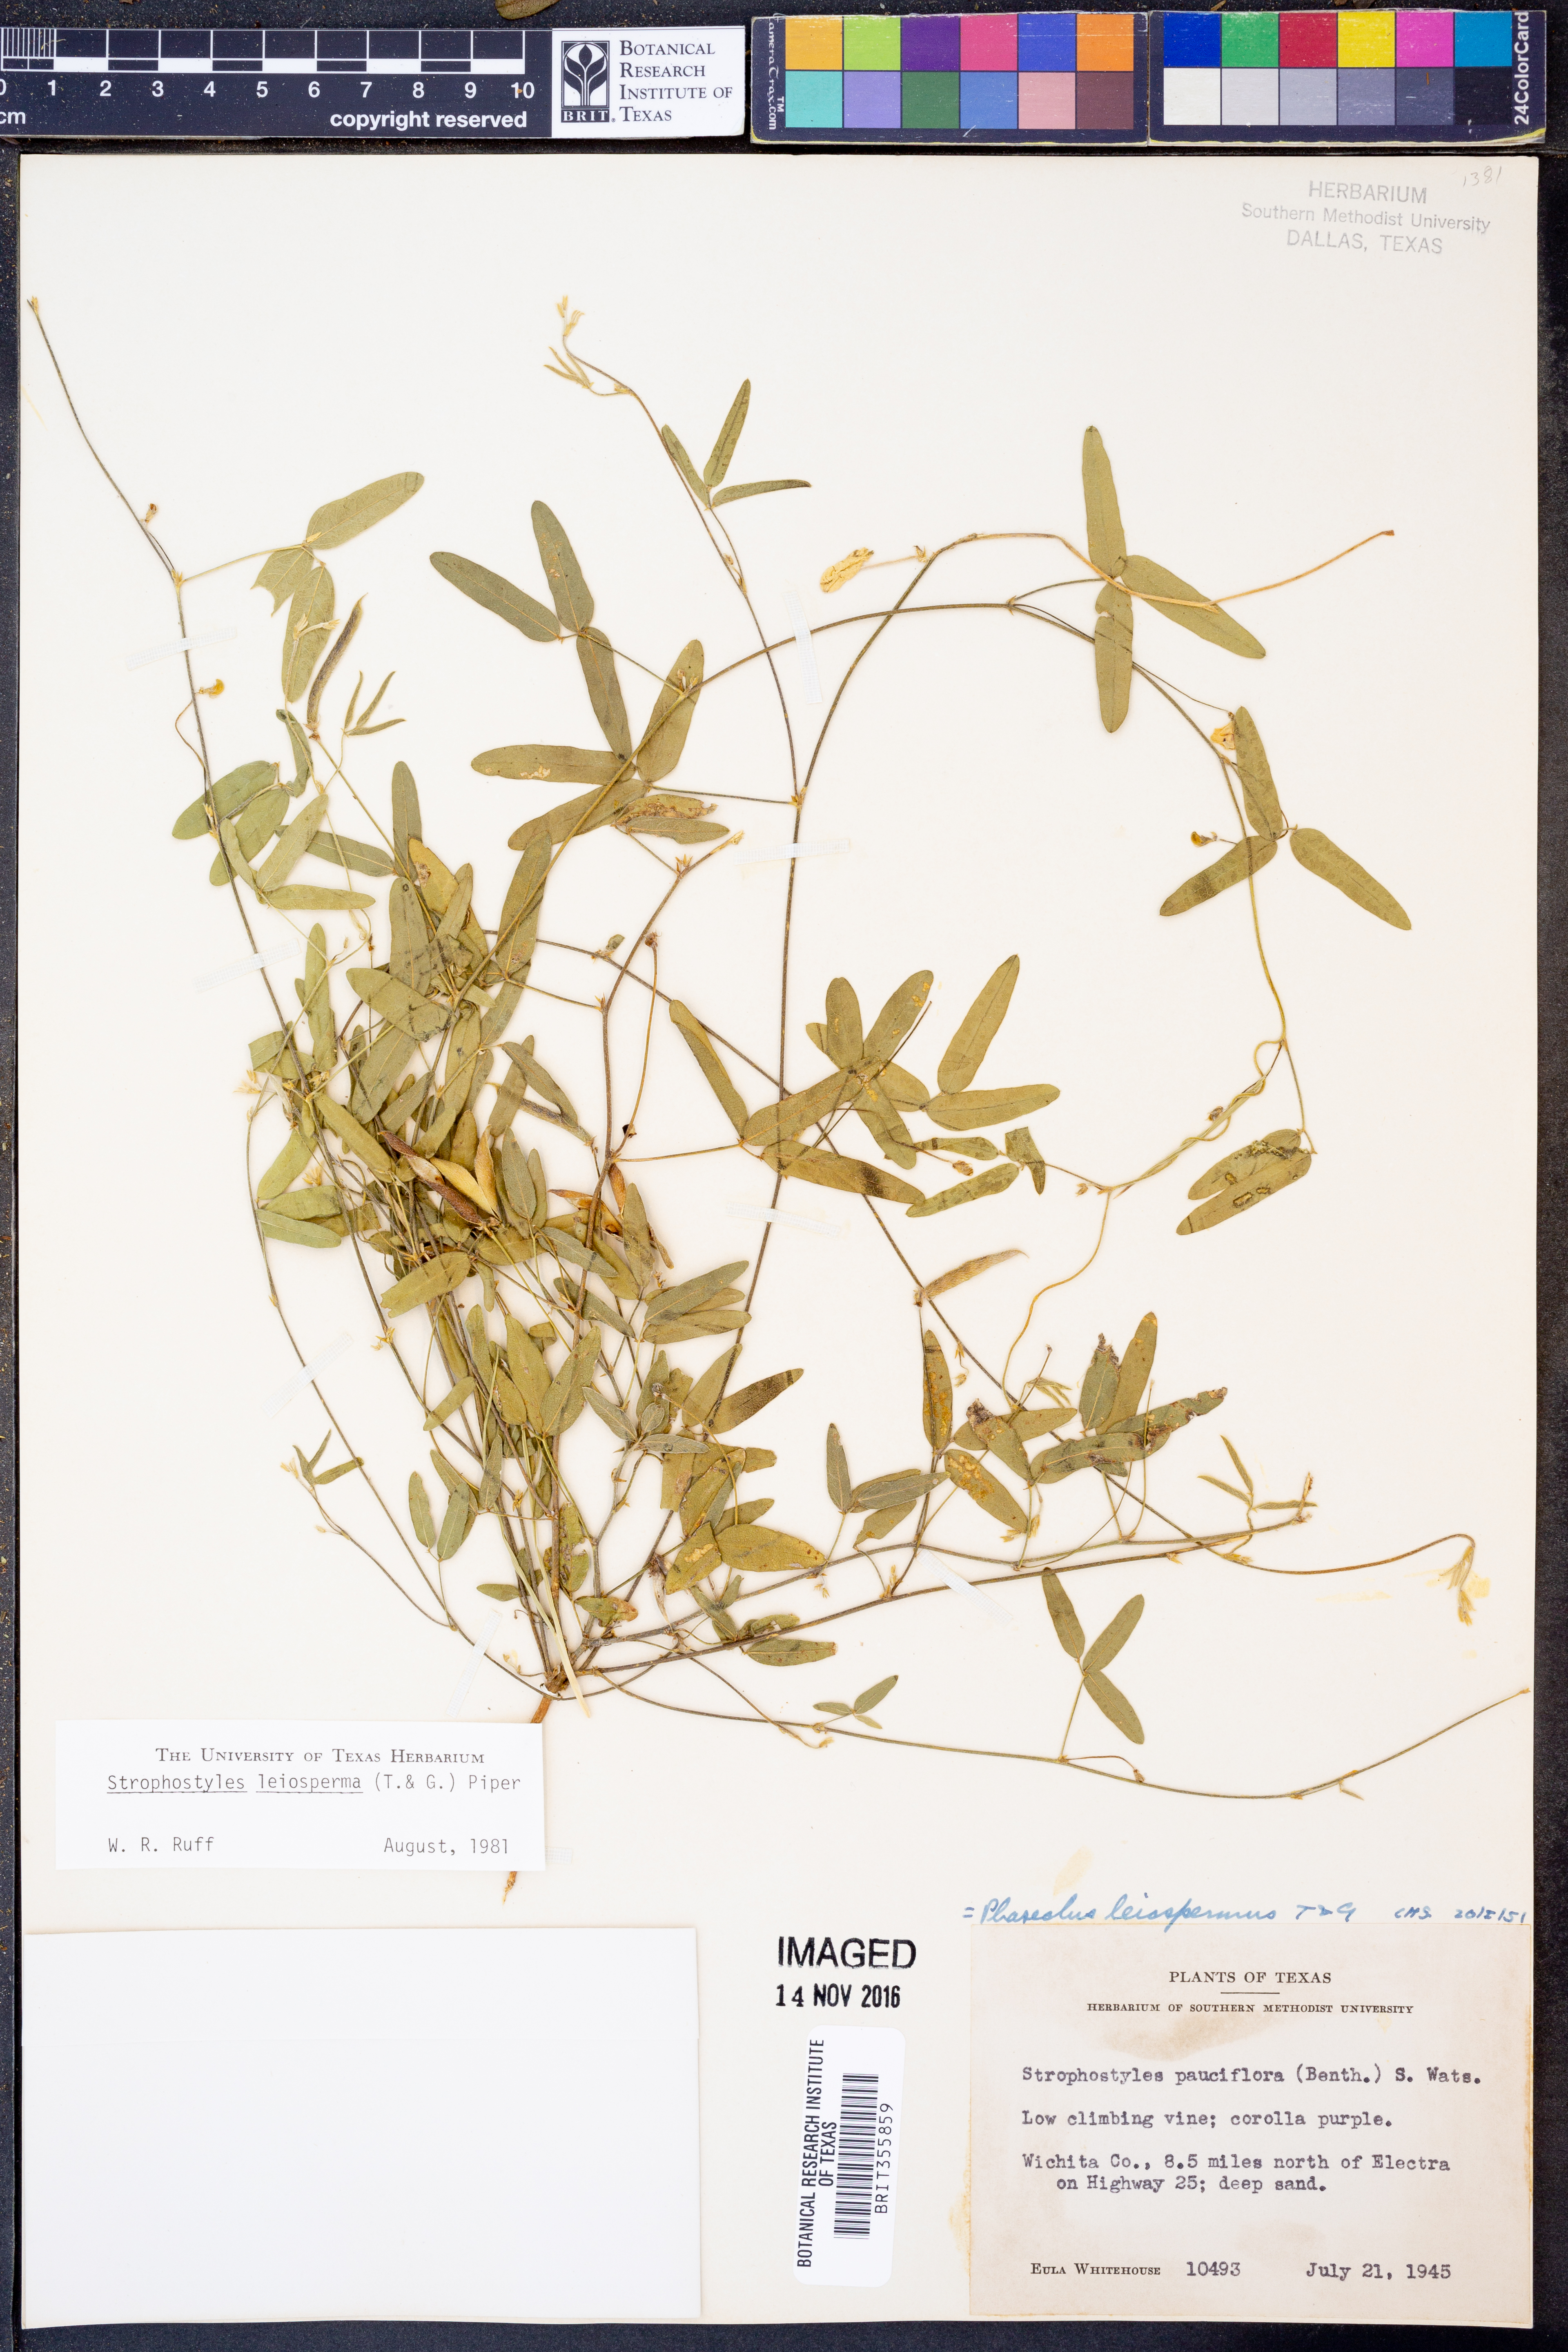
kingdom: Plantae
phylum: Tracheophyta
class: Magnoliopsida
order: Fabales
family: Fabaceae
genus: Strophostyles
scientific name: Strophostyles leiosperma
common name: Smooth-seed wild bean
